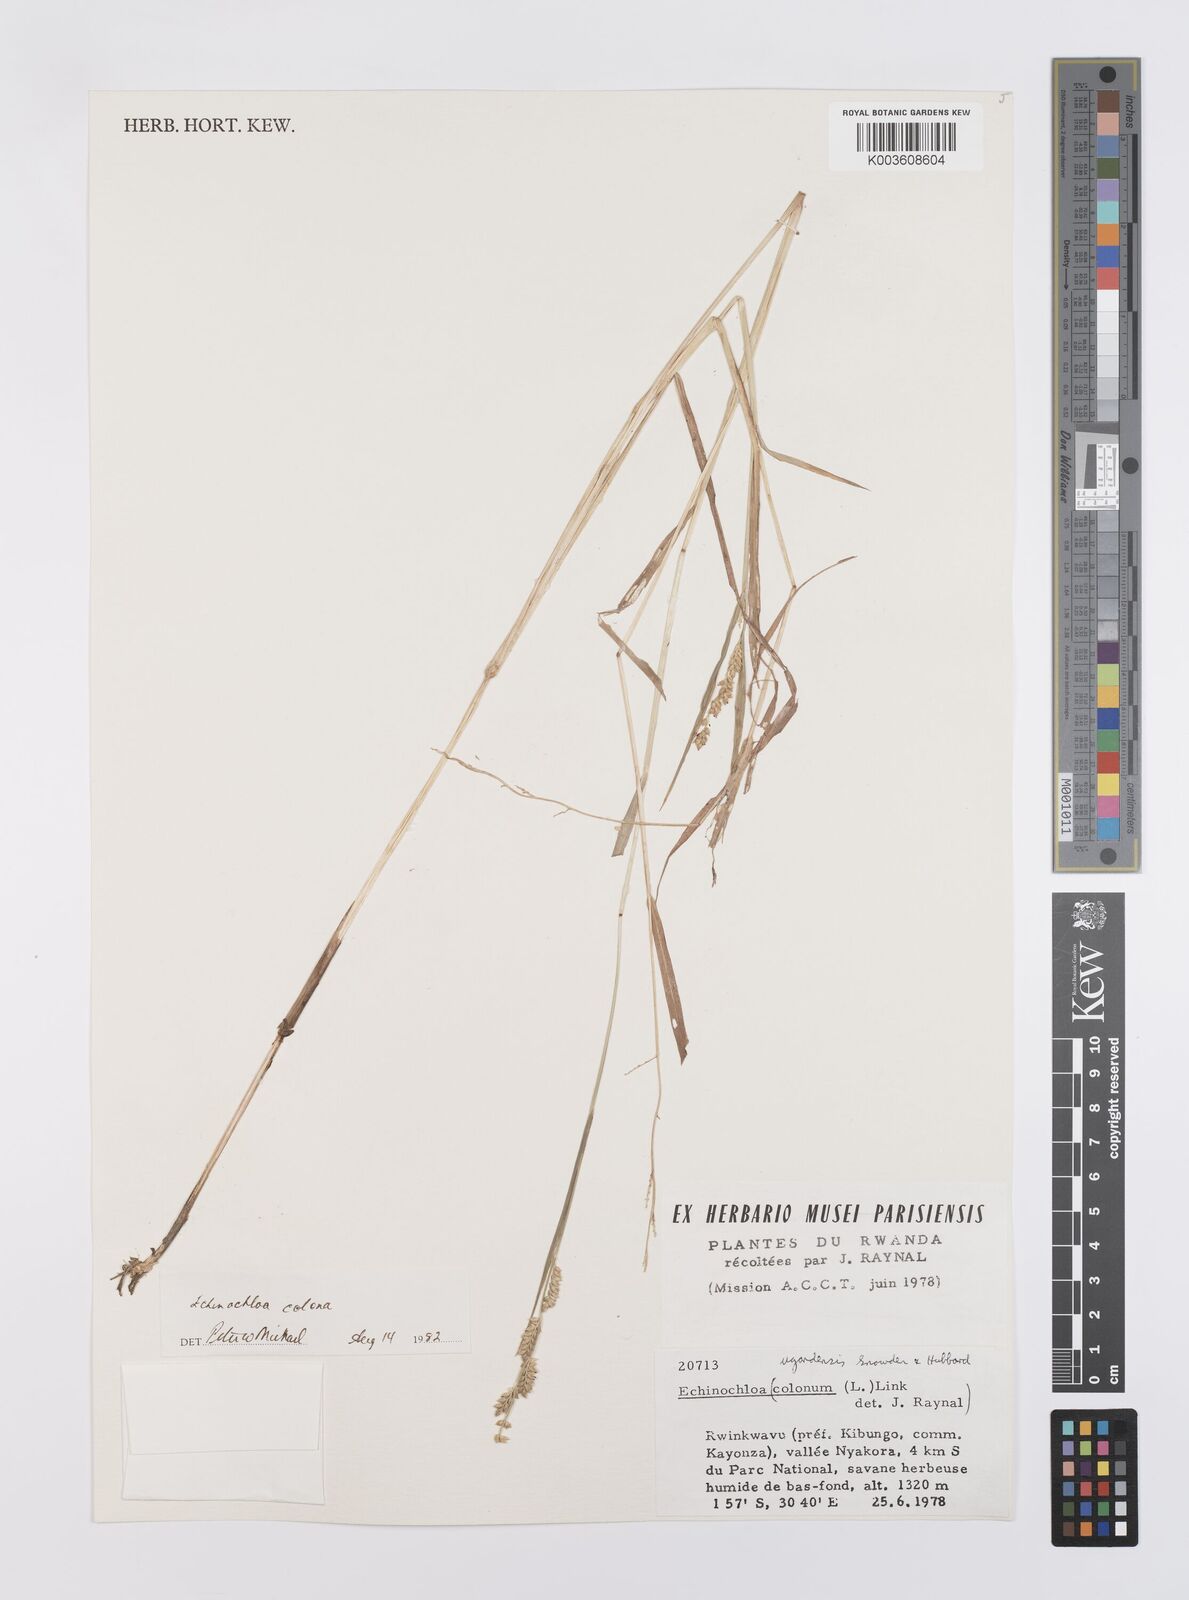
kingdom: Plantae
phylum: Tracheophyta
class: Liliopsida
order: Poales
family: Poaceae
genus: Echinochloa
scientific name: Echinochloa colonum
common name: Jungle rice
